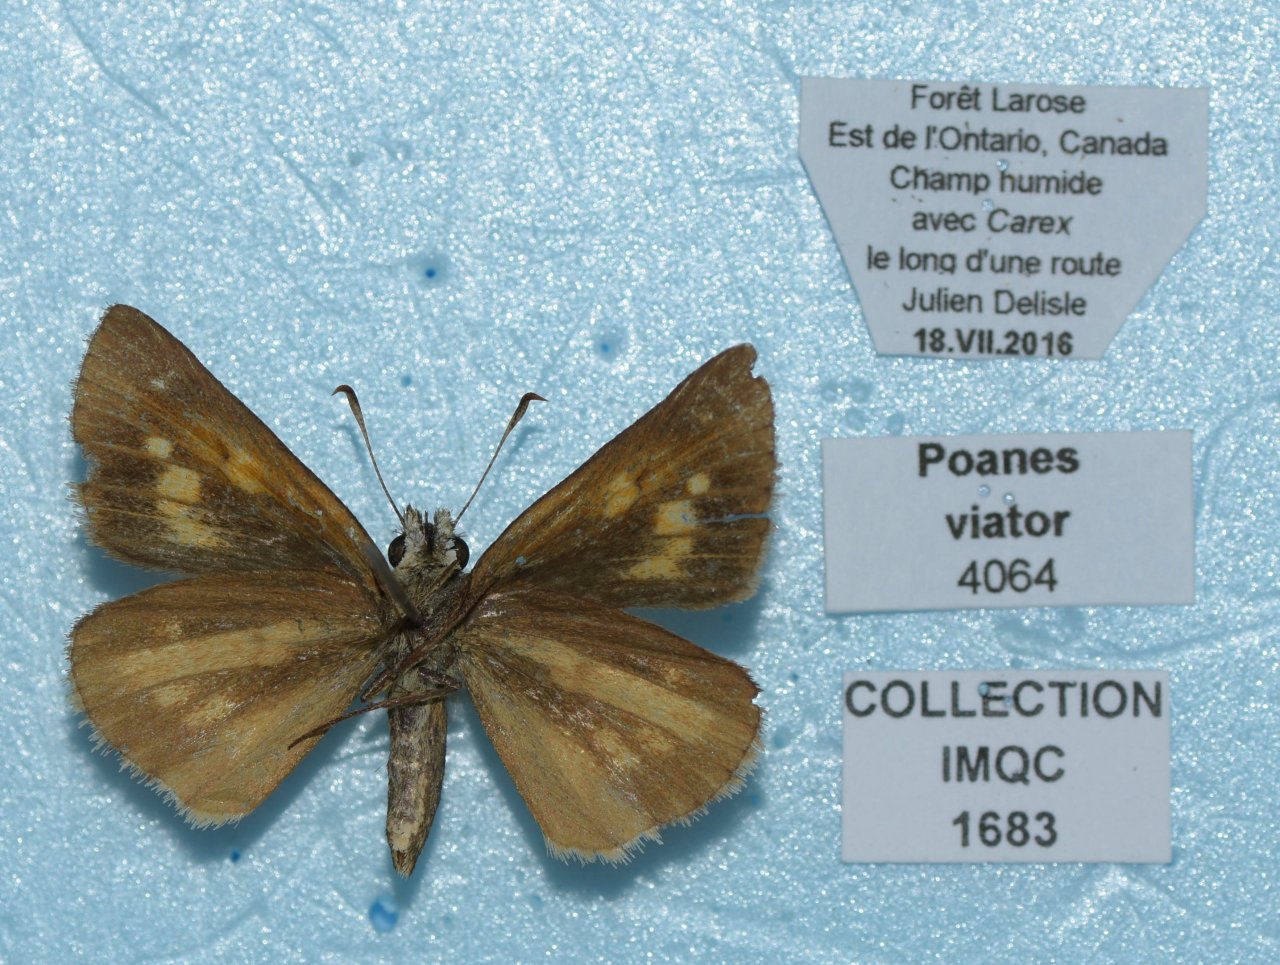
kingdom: Animalia
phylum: Arthropoda
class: Insecta
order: Lepidoptera
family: Hesperiidae
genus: Poanes
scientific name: Poanes viator
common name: Broad-winged Skipper
